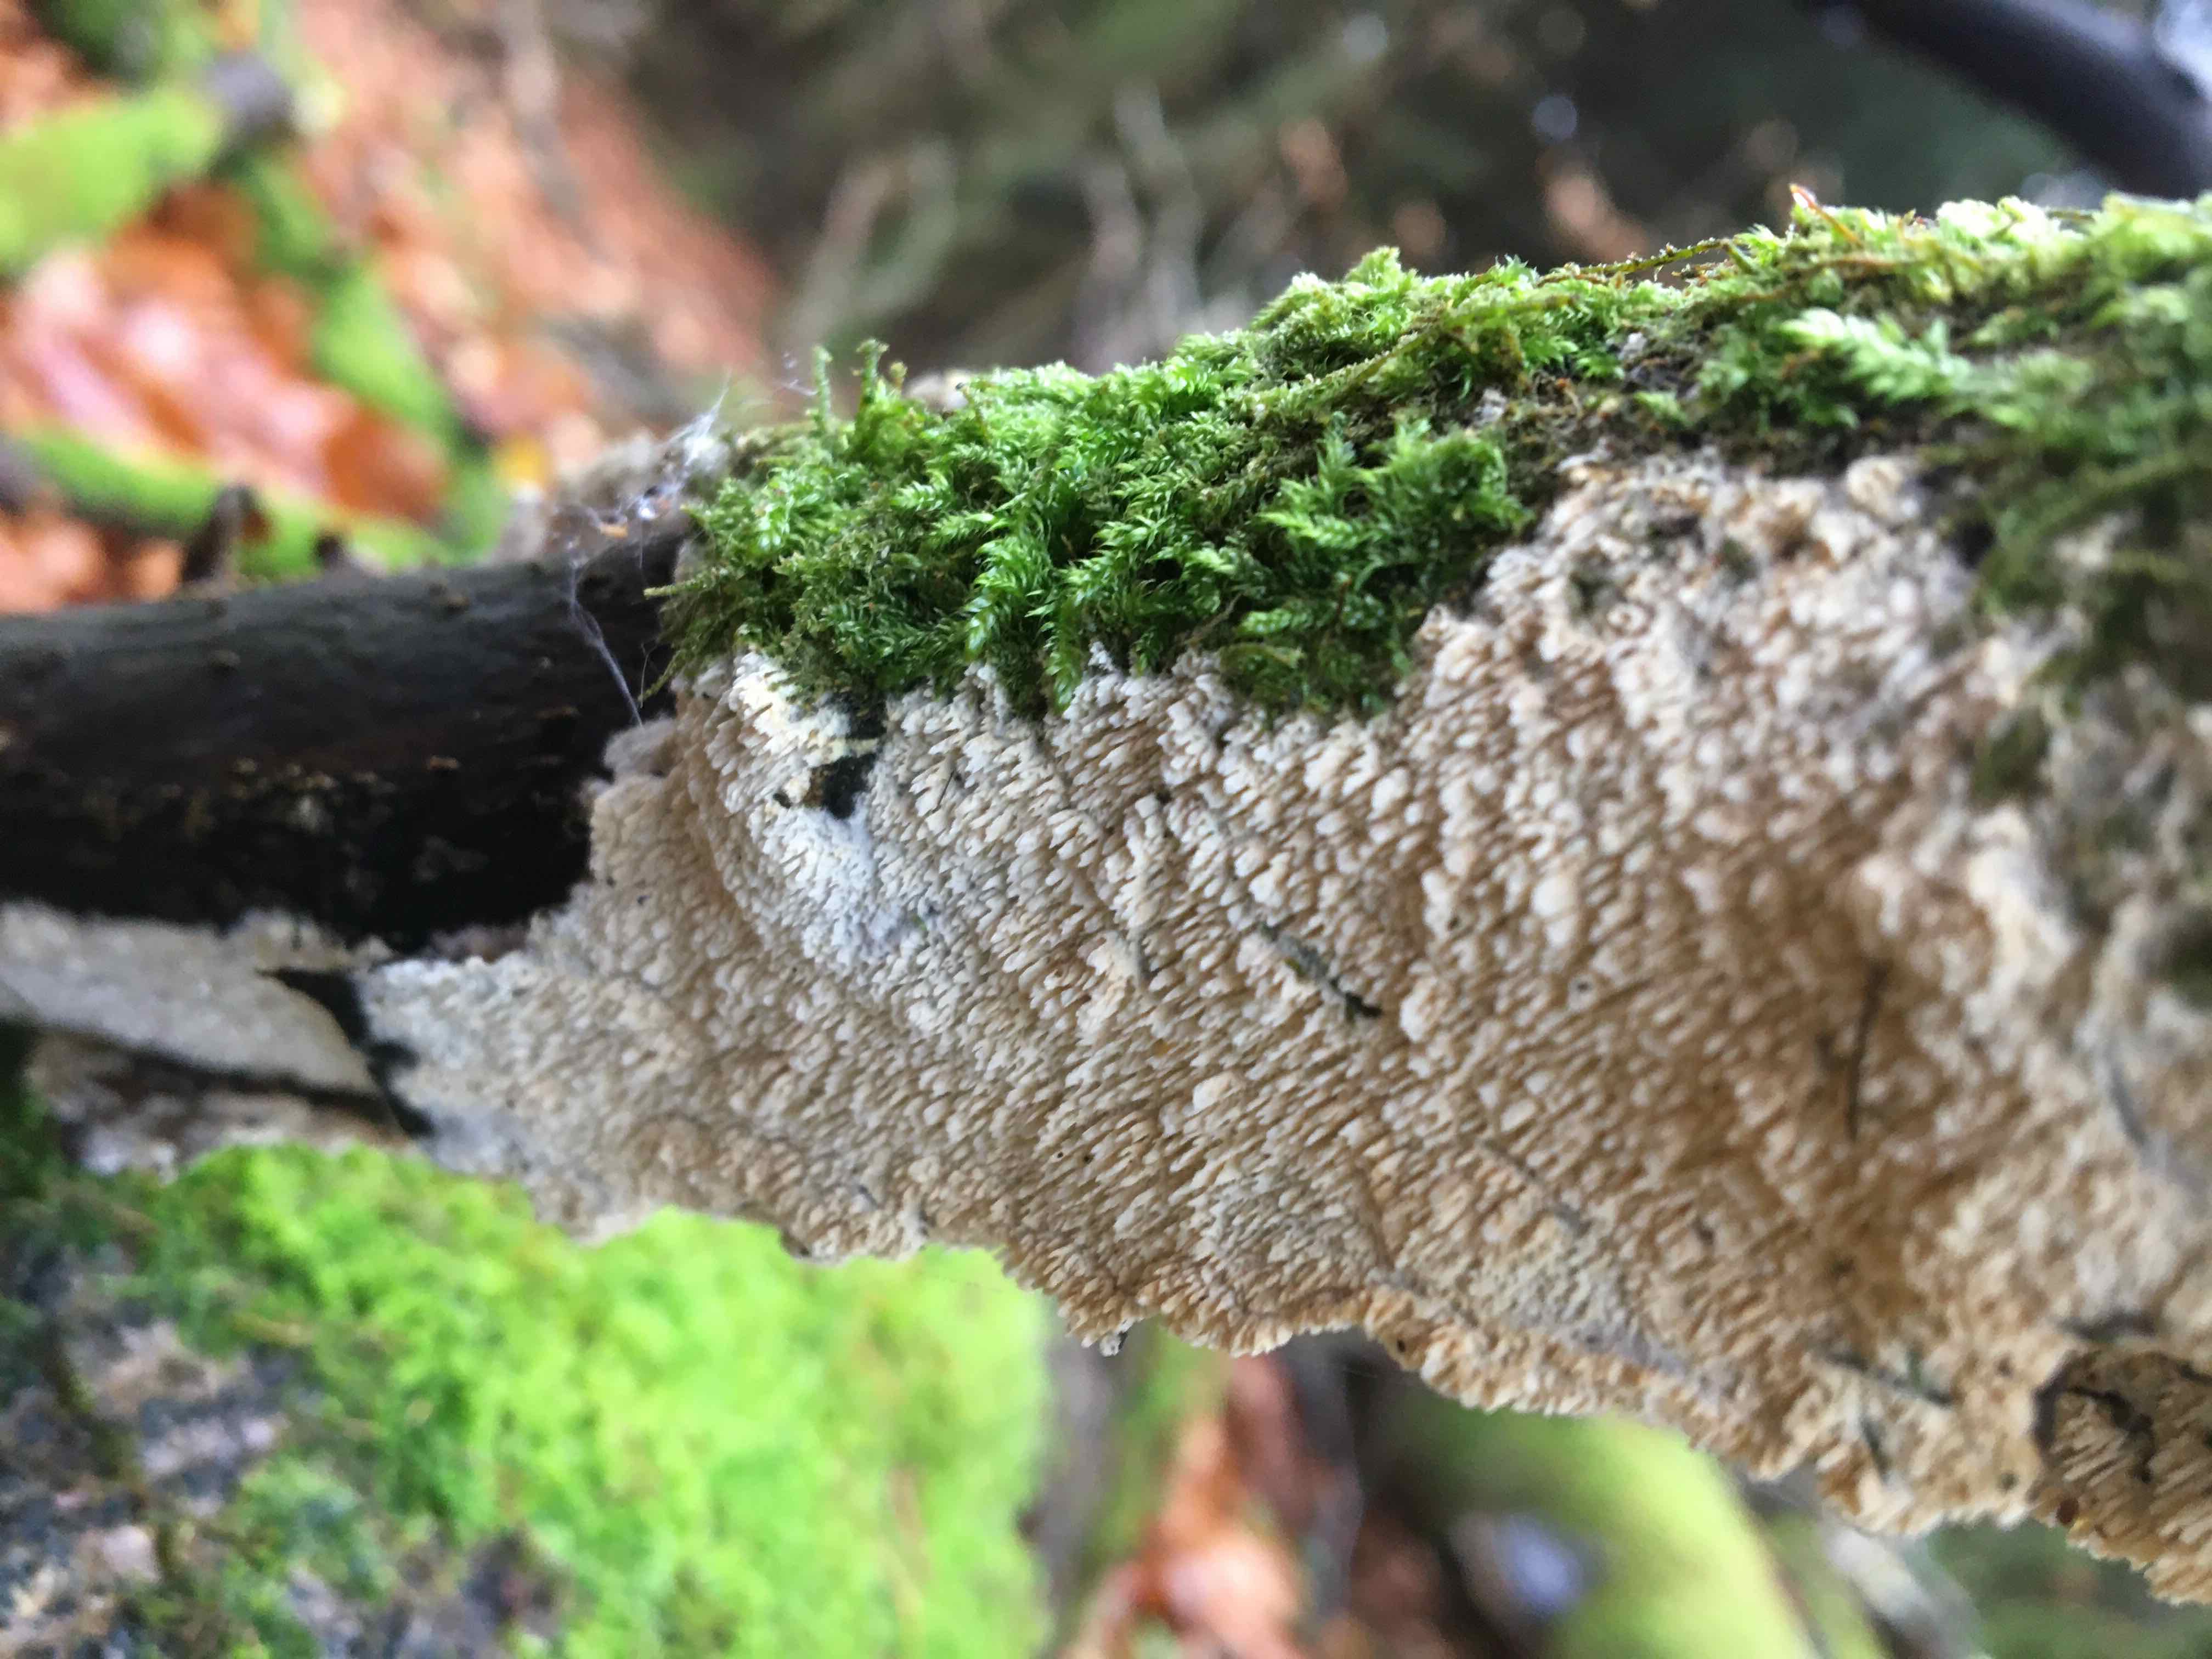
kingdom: Fungi
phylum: Basidiomycota
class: Agaricomycetes
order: Corticiales
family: Corticiaceae
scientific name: Corticiaceae
